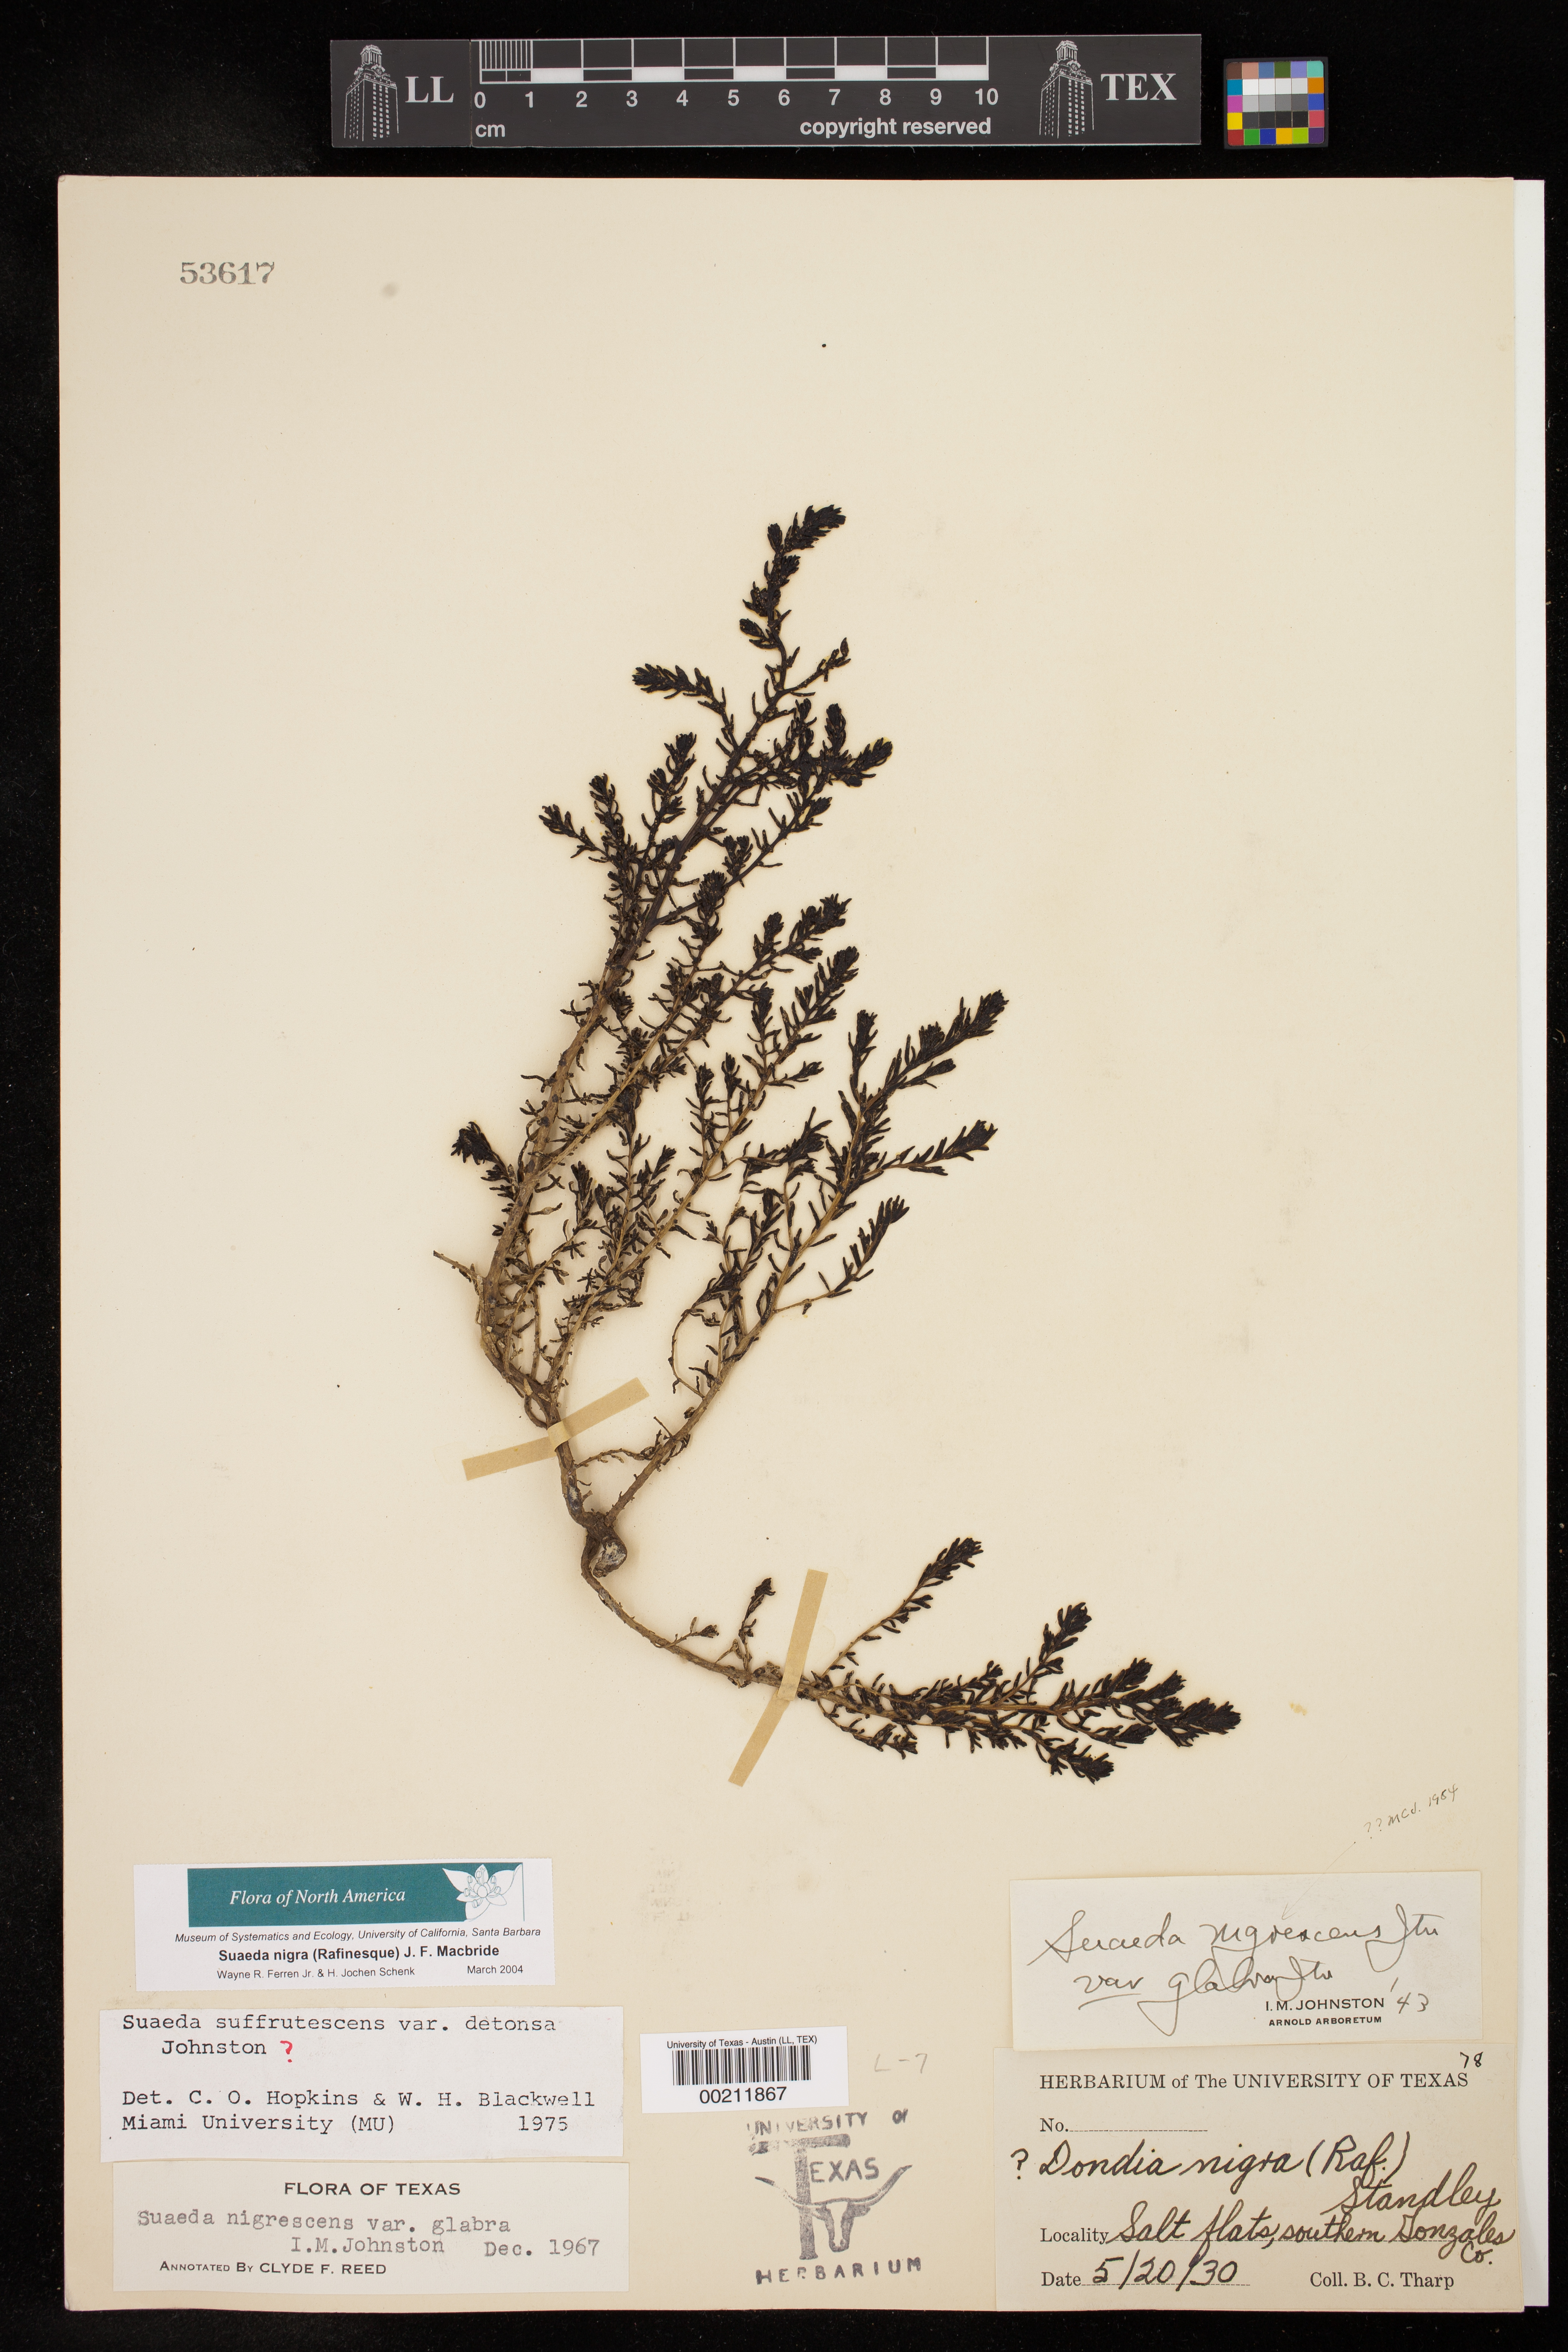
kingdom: Plantae
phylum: Tracheophyta
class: Magnoliopsida
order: Caryophyllales
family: Amaranthaceae
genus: Suaeda
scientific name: Suaeda nigra
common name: Bush seepweed
